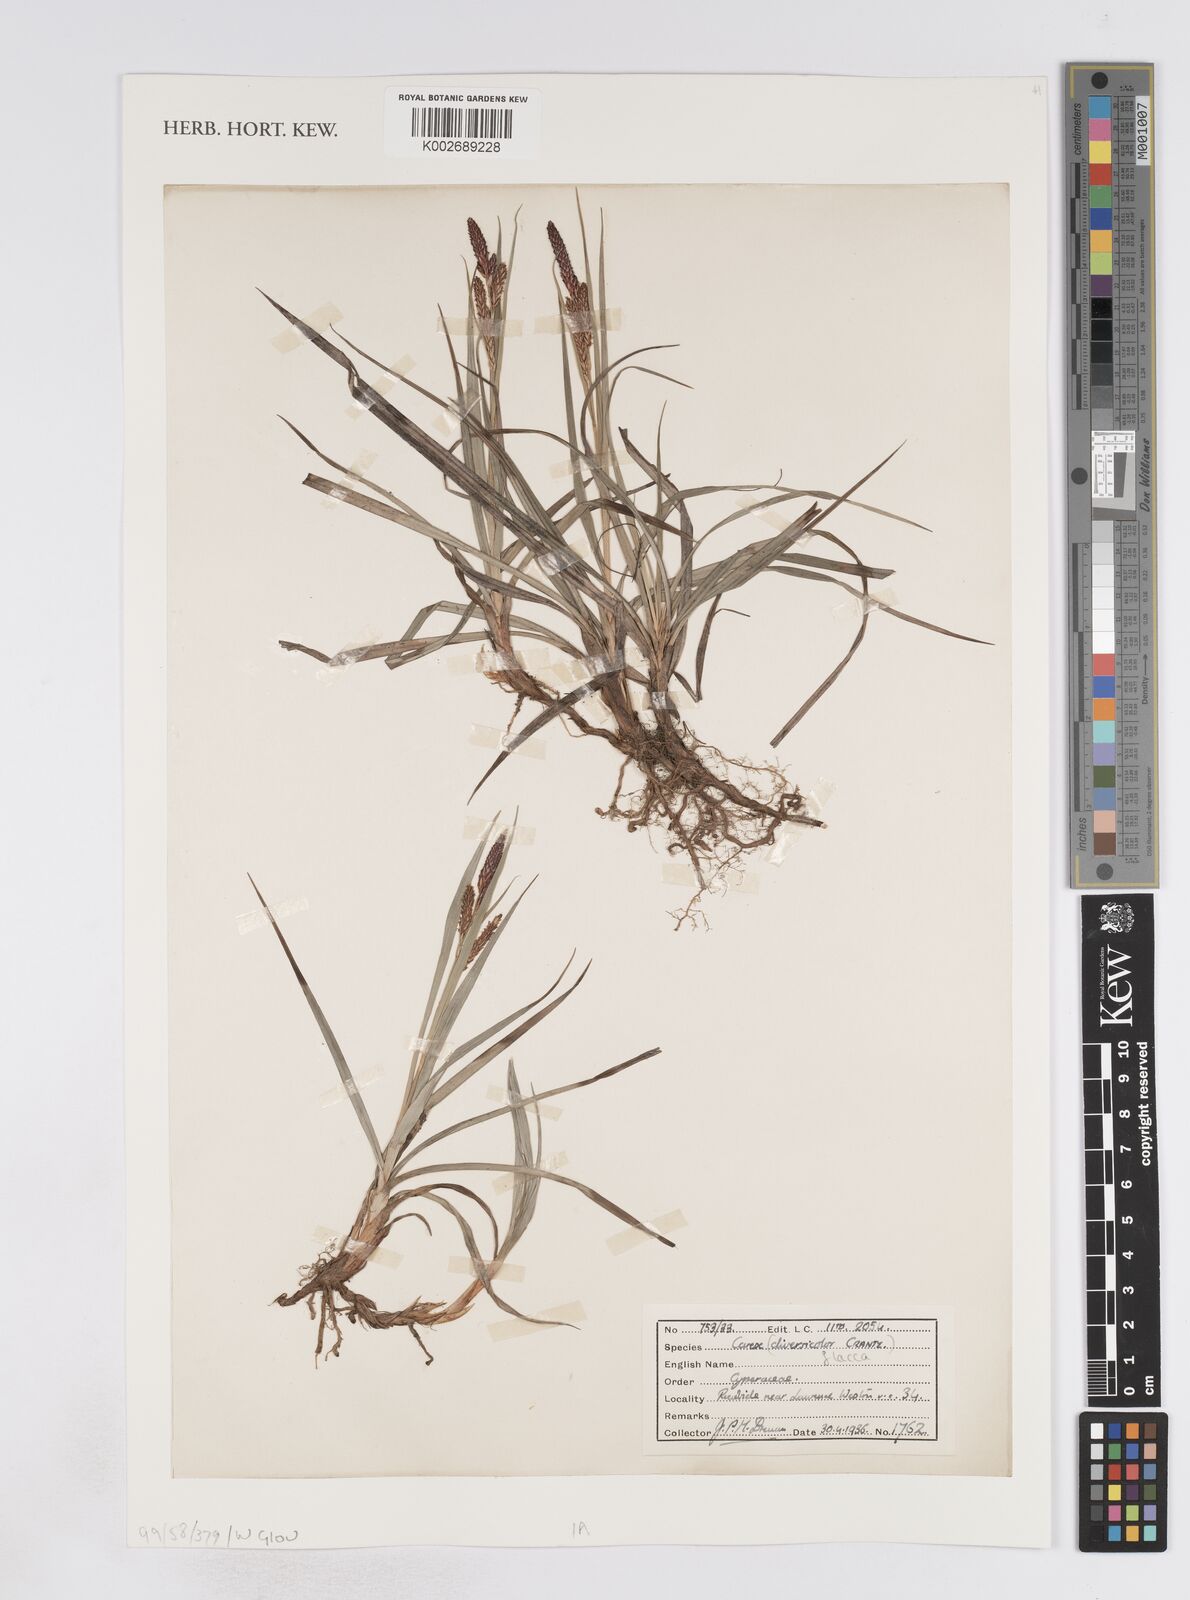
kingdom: Plantae
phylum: Tracheophyta
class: Liliopsida
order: Poales
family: Cyperaceae
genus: Carex
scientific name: Carex flacca
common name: Glaucous sedge
